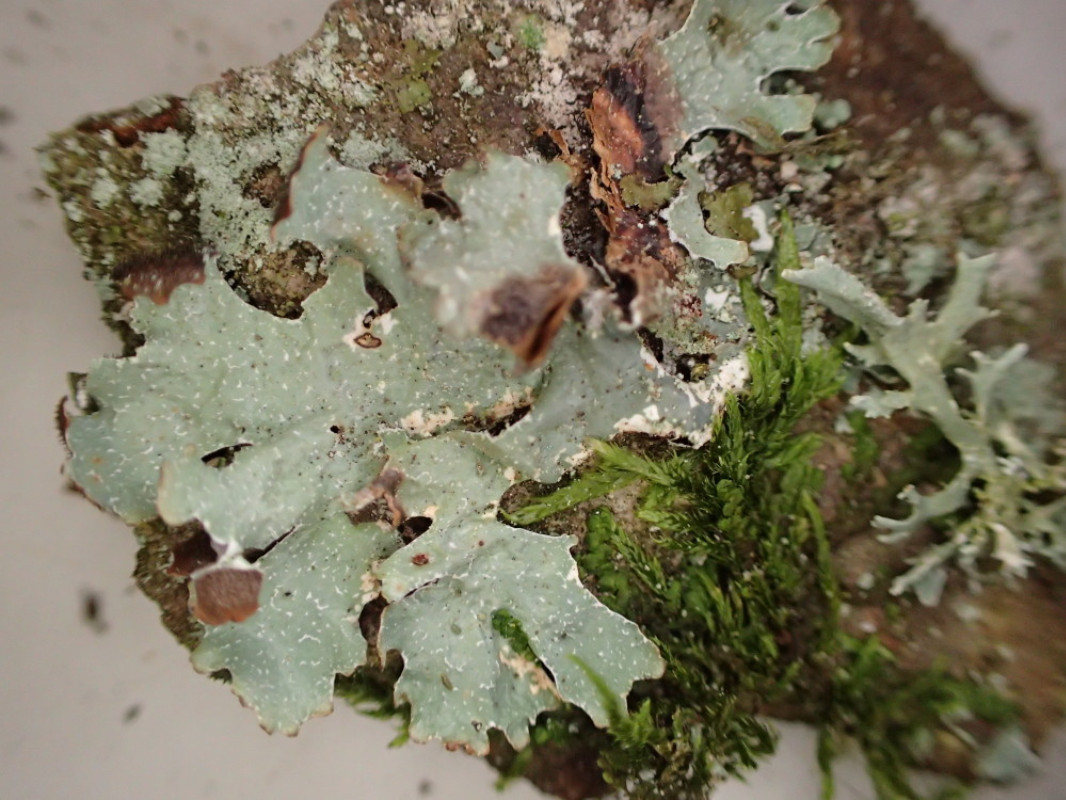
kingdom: Fungi
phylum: Ascomycota
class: Lecanoromycetes
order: Lecanorales
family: Parmeliaceae
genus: Parmelia
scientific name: Parmelia sulcata
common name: rynket skållav
